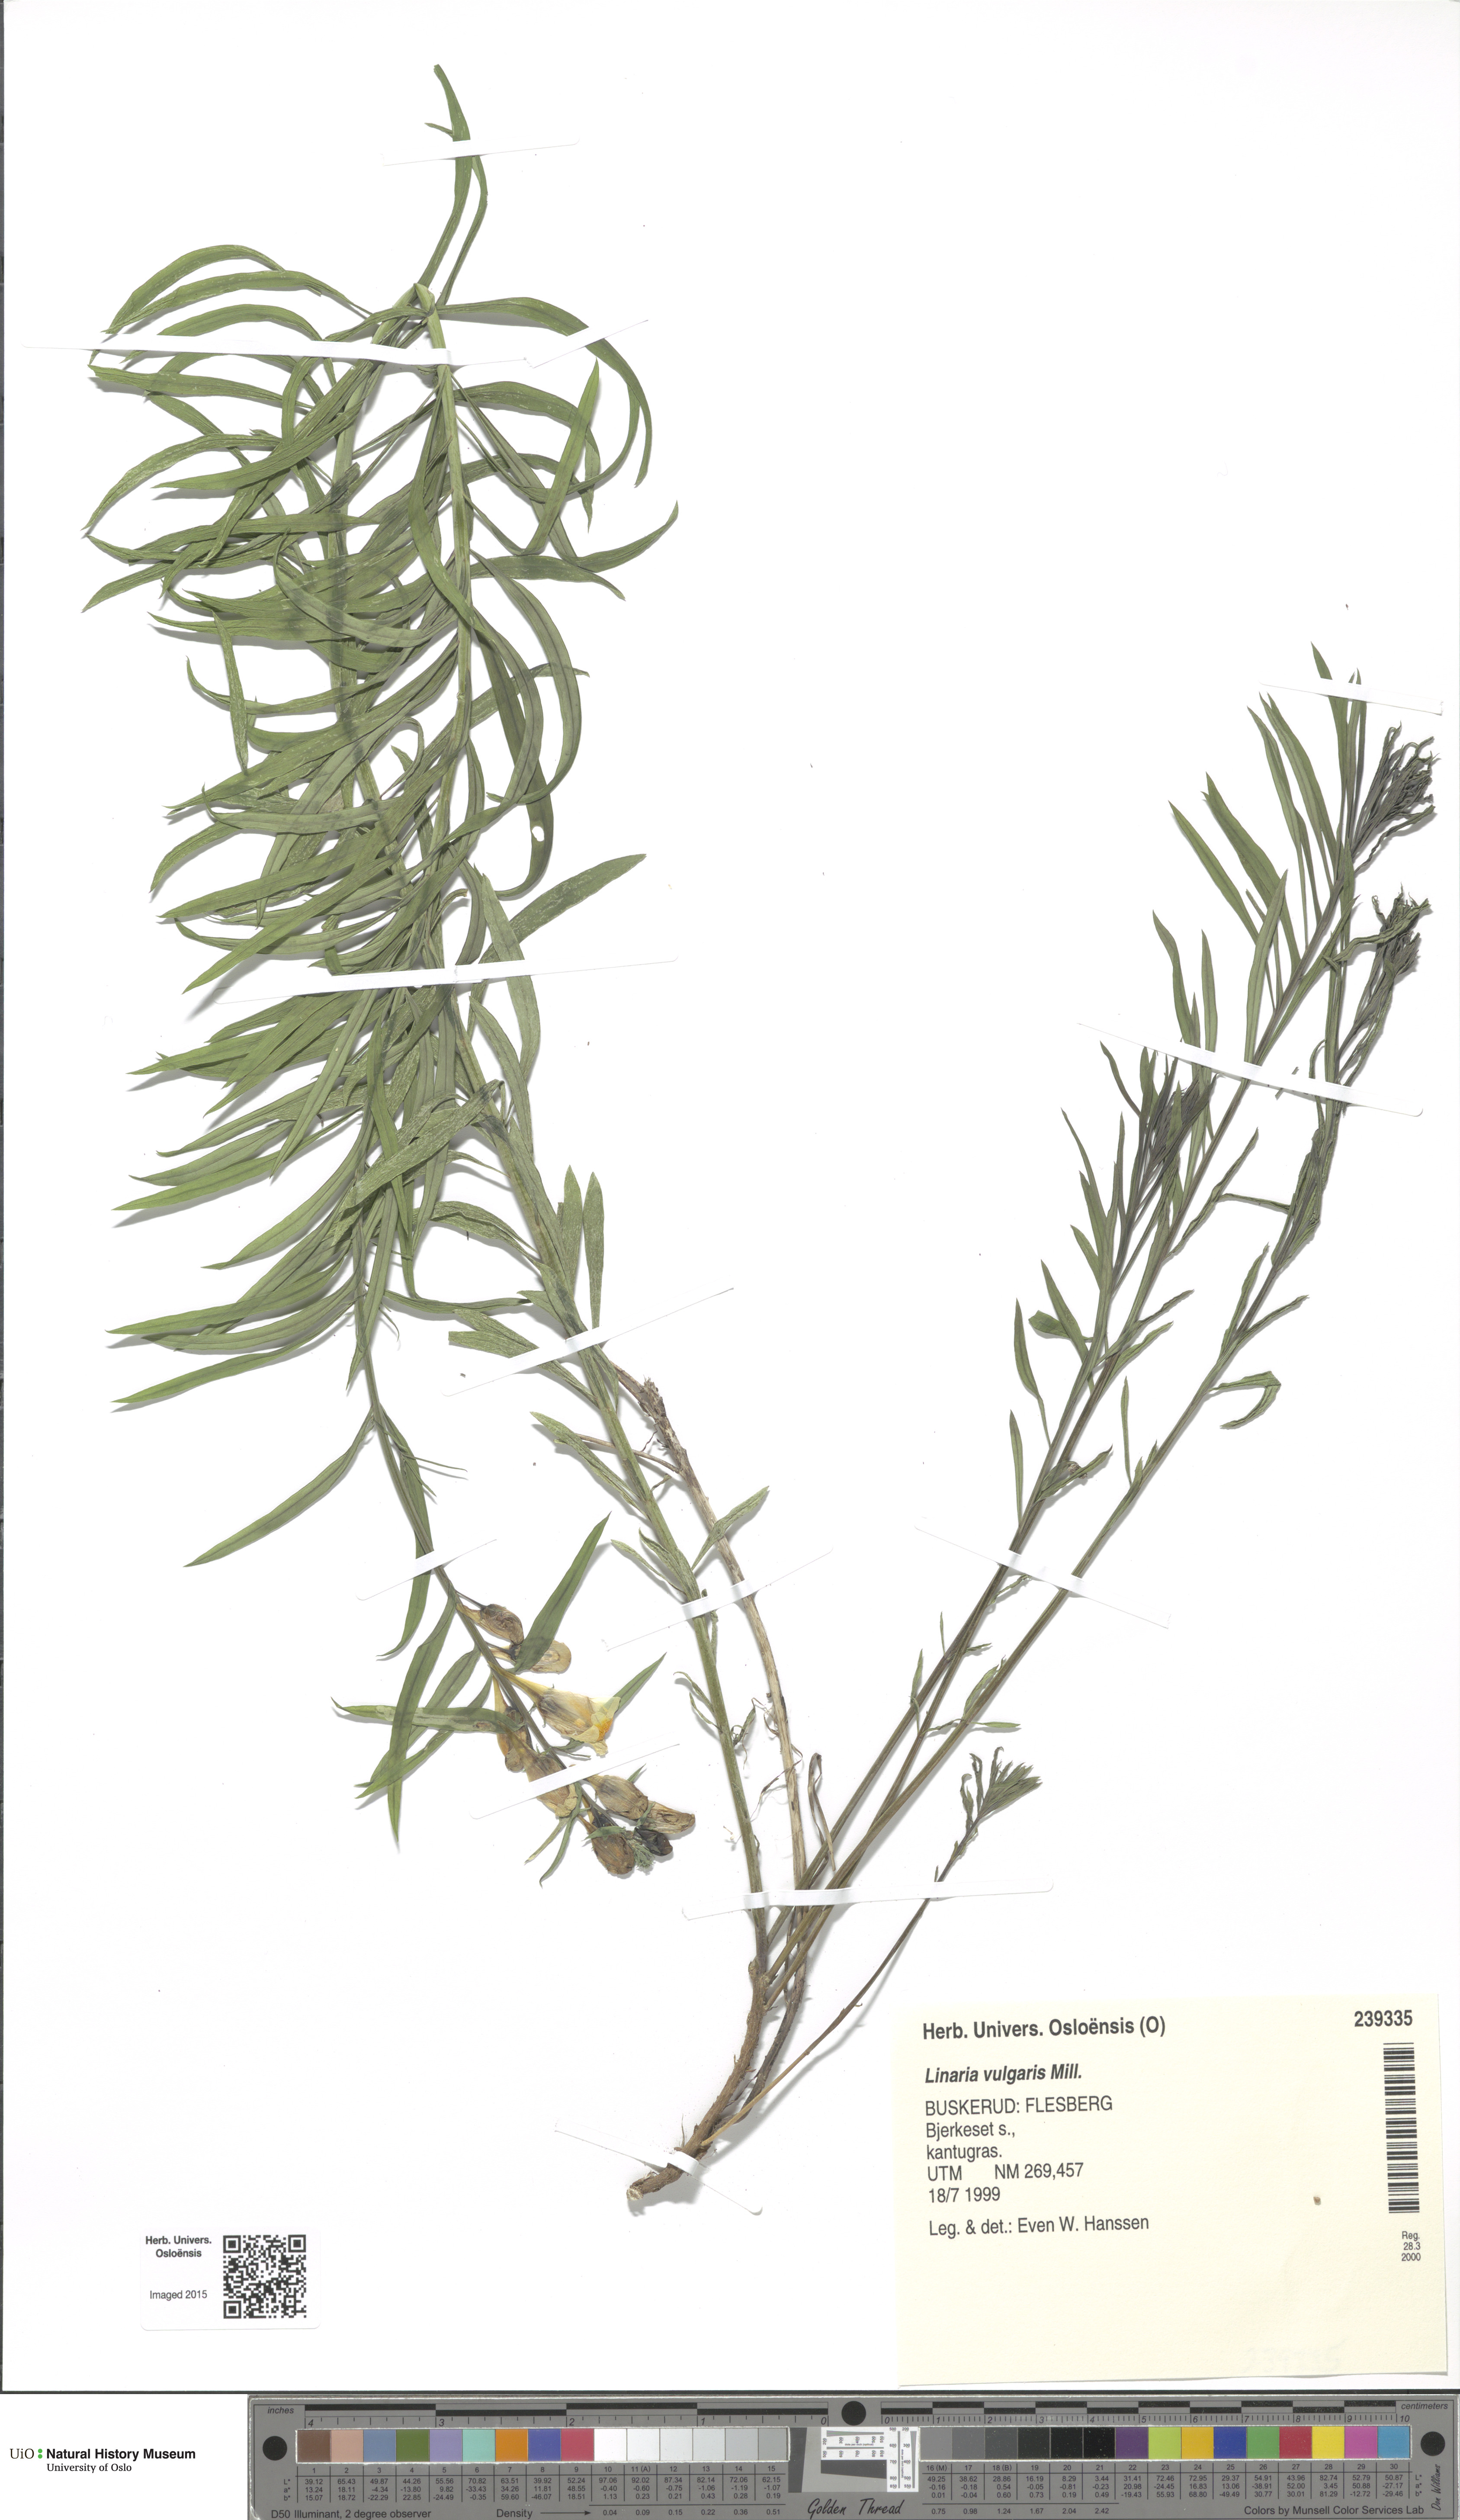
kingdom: Plantae
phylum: Tracheophyta
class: Magnoliopsida
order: Lamiales
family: Plantaginaceae
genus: Linaria
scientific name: Linaria vulgaris
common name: Butter and eggs
